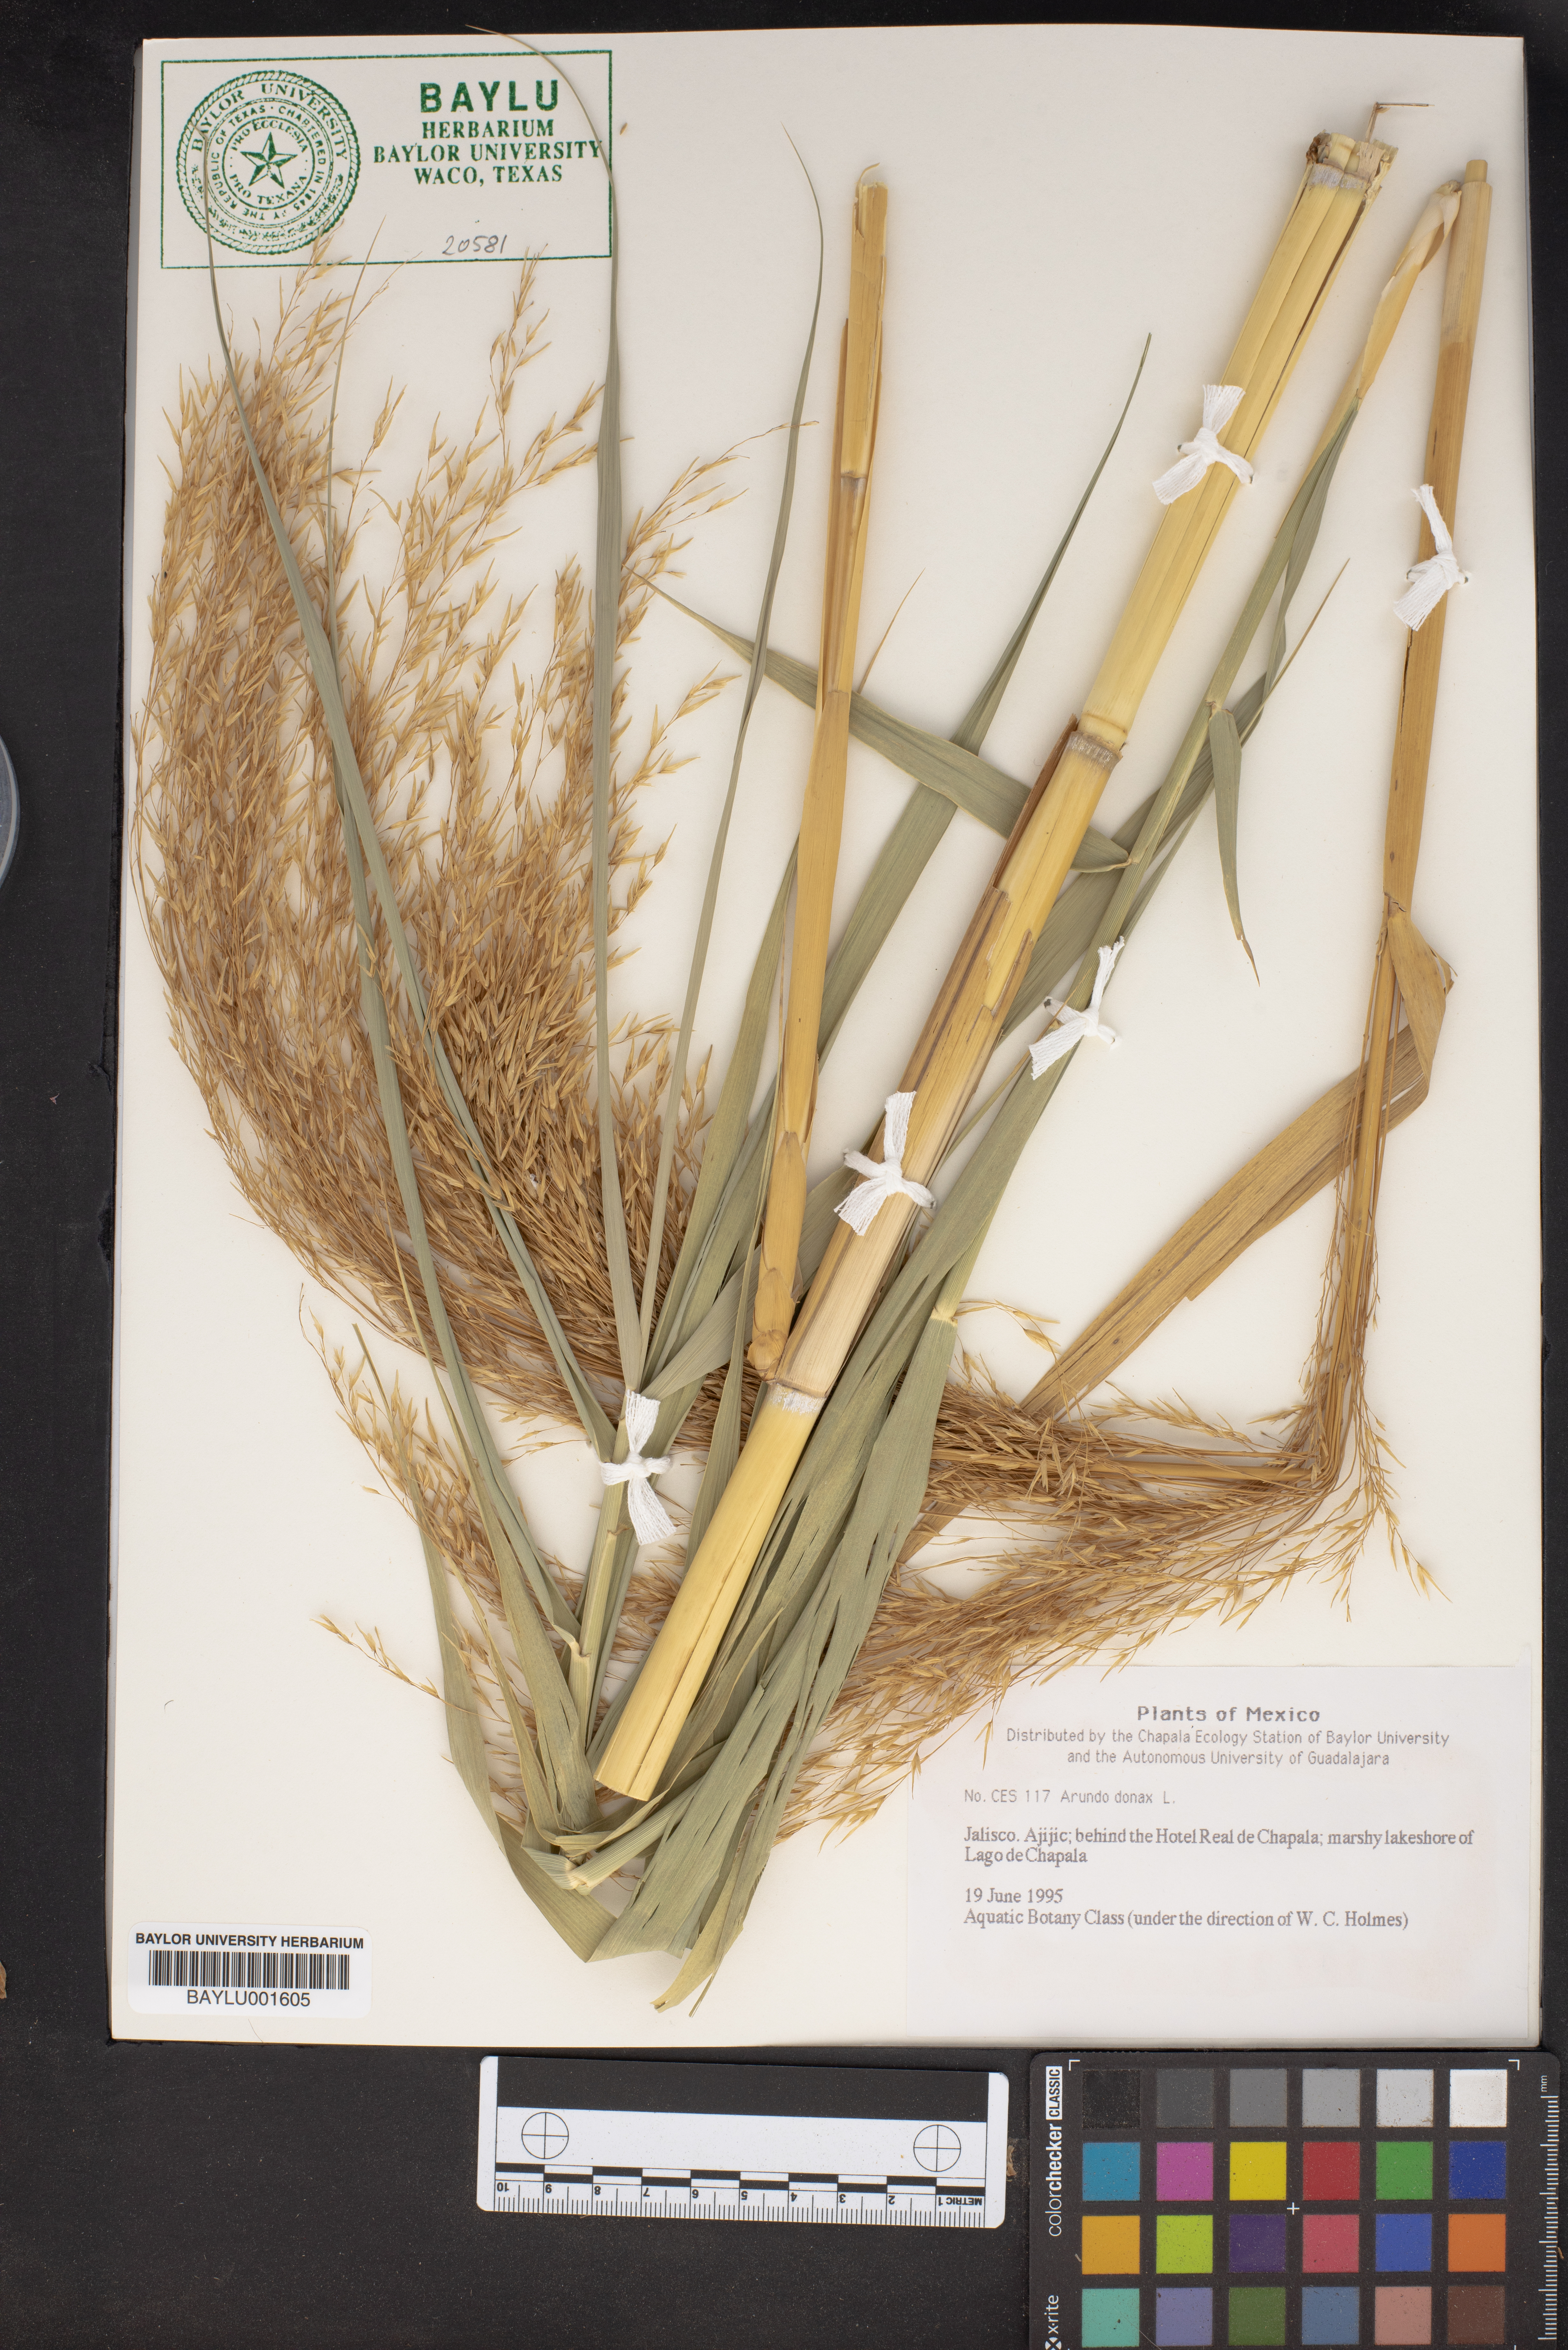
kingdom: Plantae
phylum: Tracheophyta
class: Liliopsida
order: Poales
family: Poaceae
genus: Arundo
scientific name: Arundo donax
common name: Giant reed
